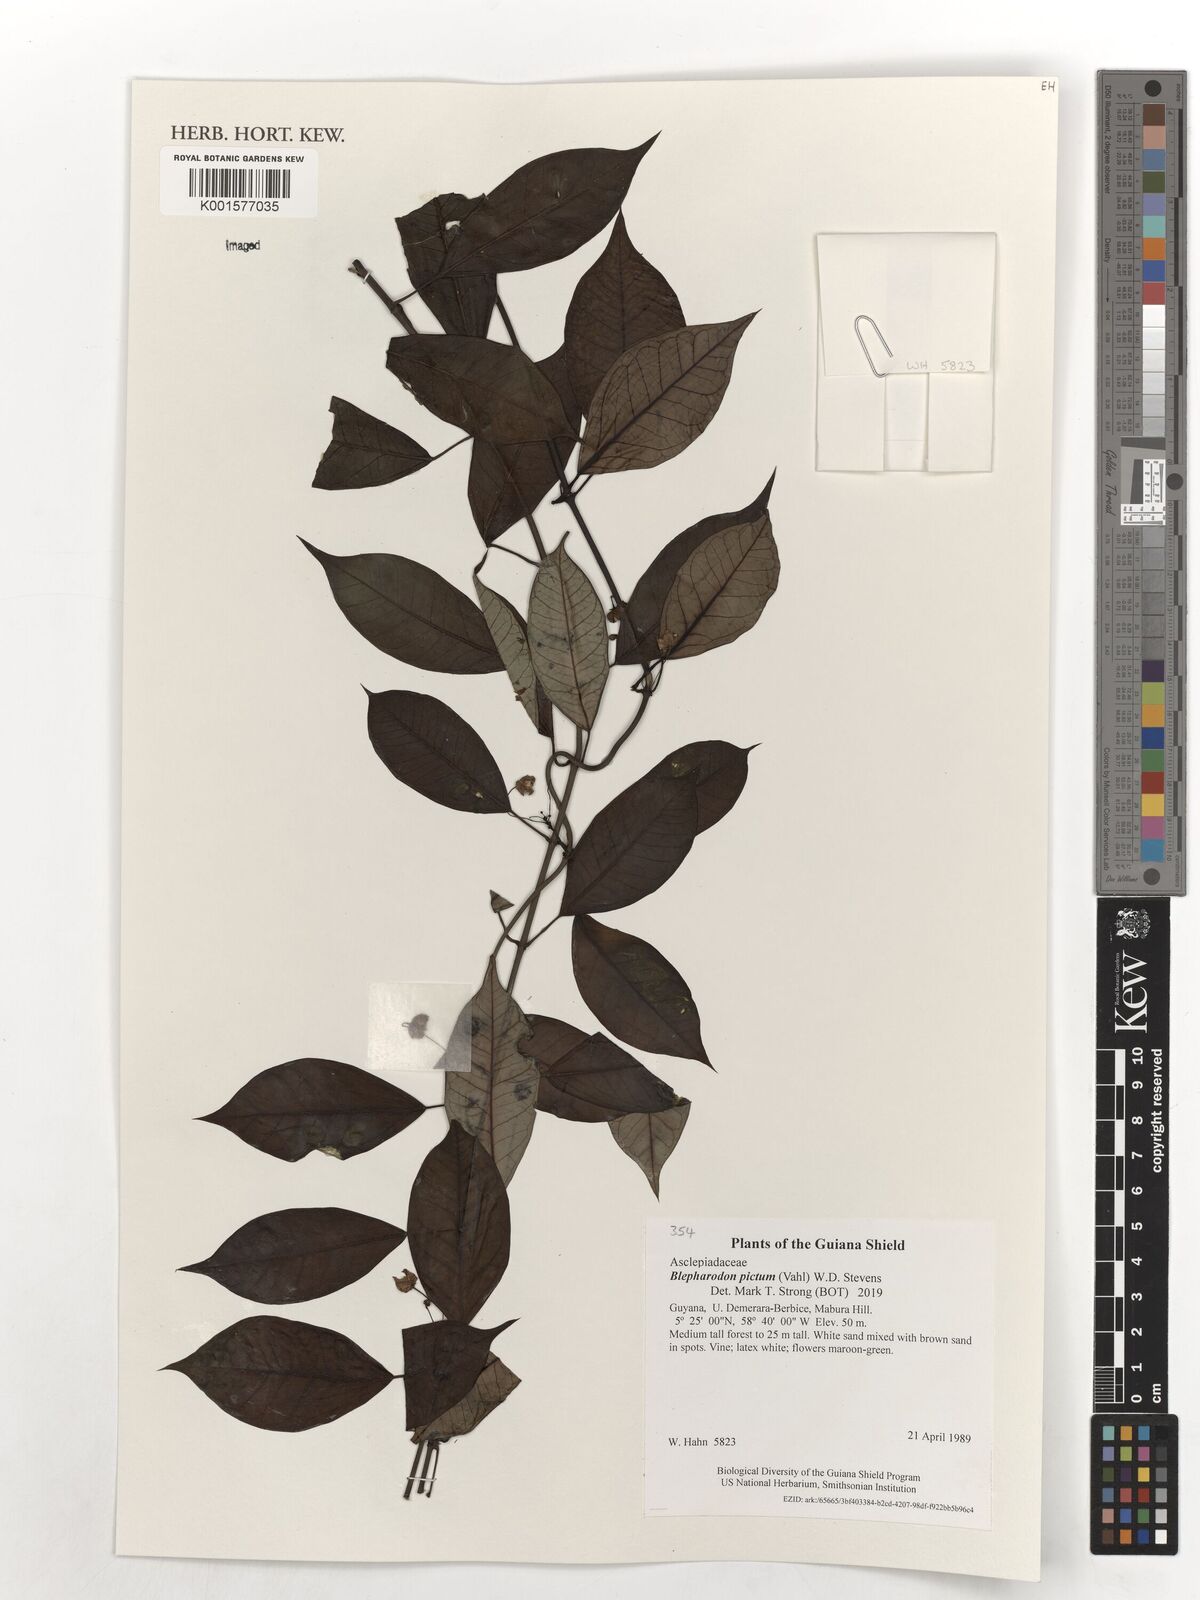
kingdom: Plantae
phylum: Tracheophyta
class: Magnoliopsida
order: Gentianales
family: Apocynaceae
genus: Blepharodon
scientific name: Blepharodon pictum
